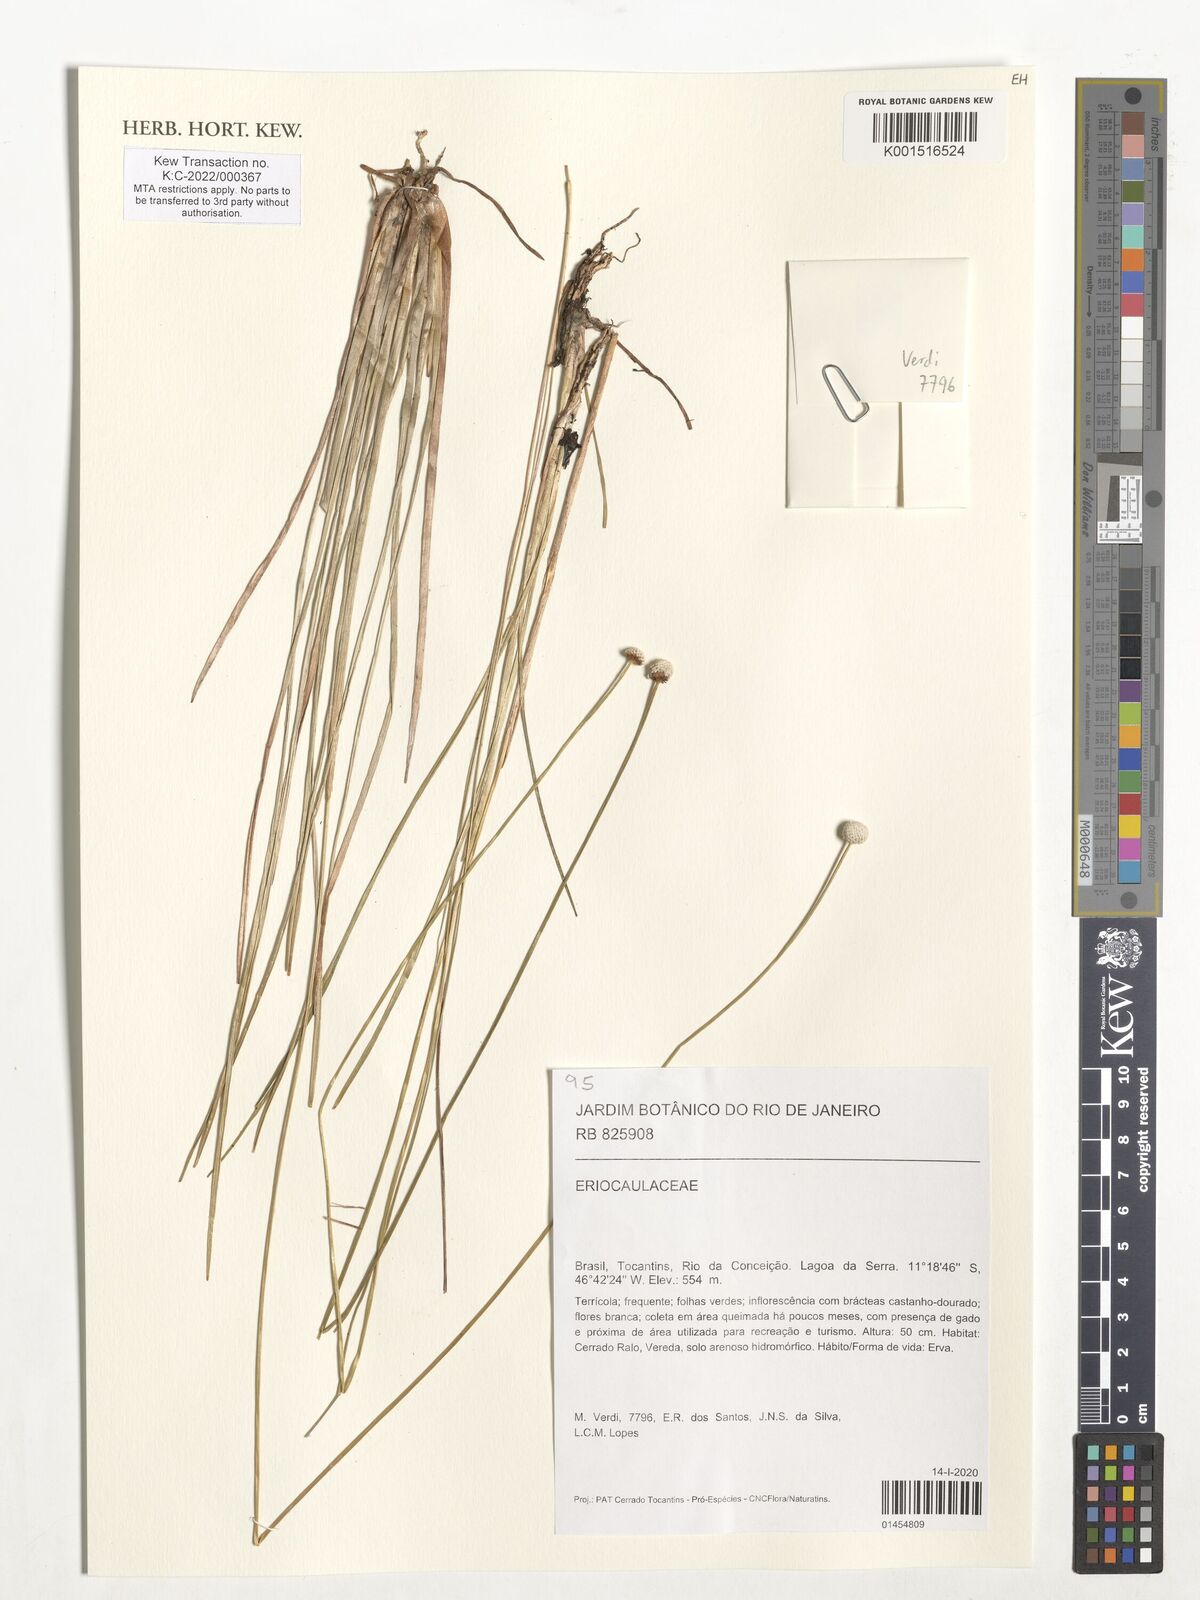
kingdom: Plantae
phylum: Tracheophyta
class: Liliopsida
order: Poales
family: Eriocaulaceae
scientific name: Eriocaulaceae
